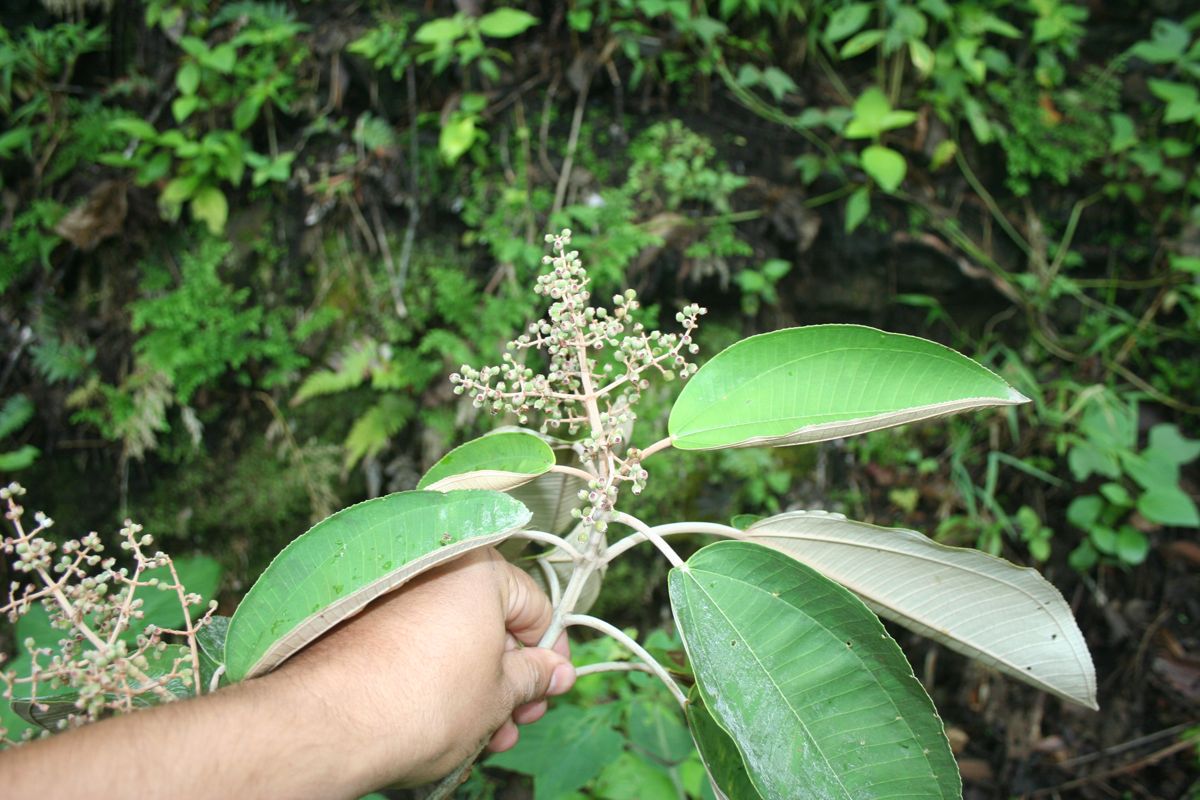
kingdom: Plantae
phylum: Tracheophyta
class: Magnoliopsida
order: Myrtales
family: Melastomataceae
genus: Miconia
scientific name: Miconia argentea
